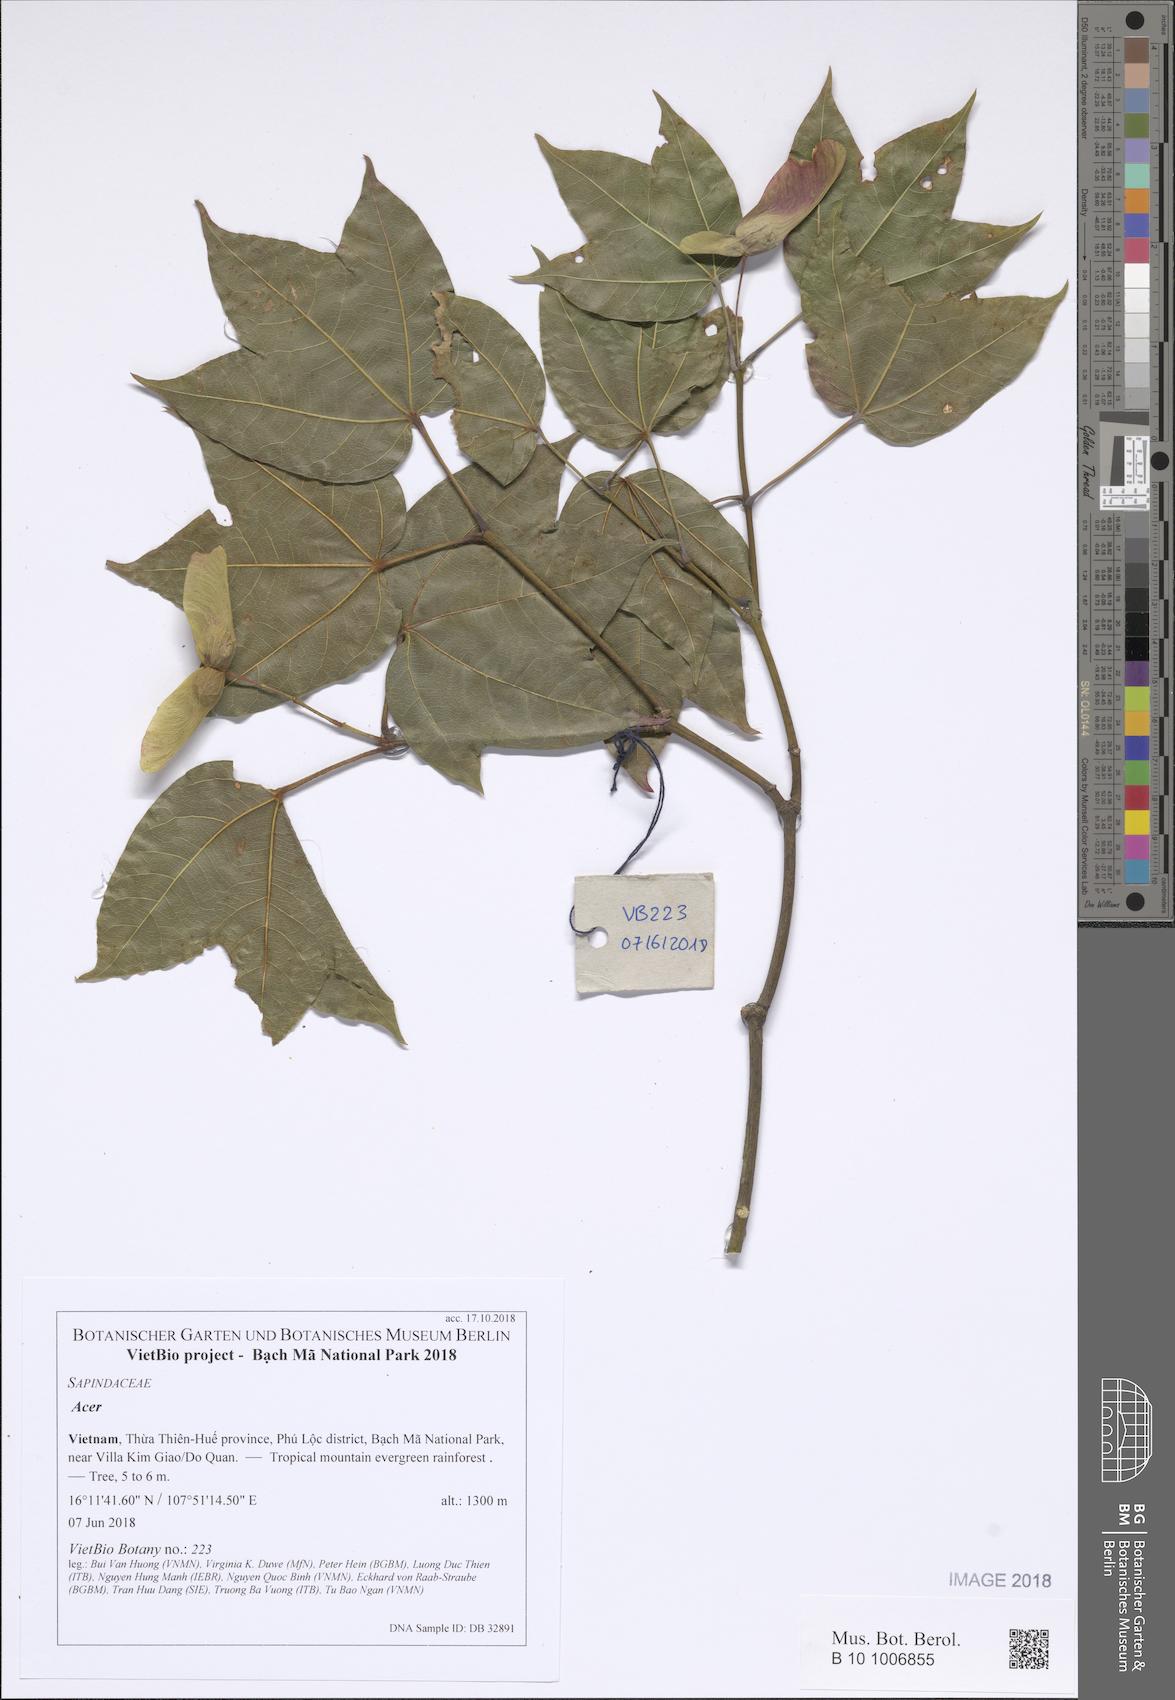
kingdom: Plantae
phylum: Tracheophyta
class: Magnoliopsida
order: Sapindales
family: Sapindaceae
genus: Acer
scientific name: Acer
